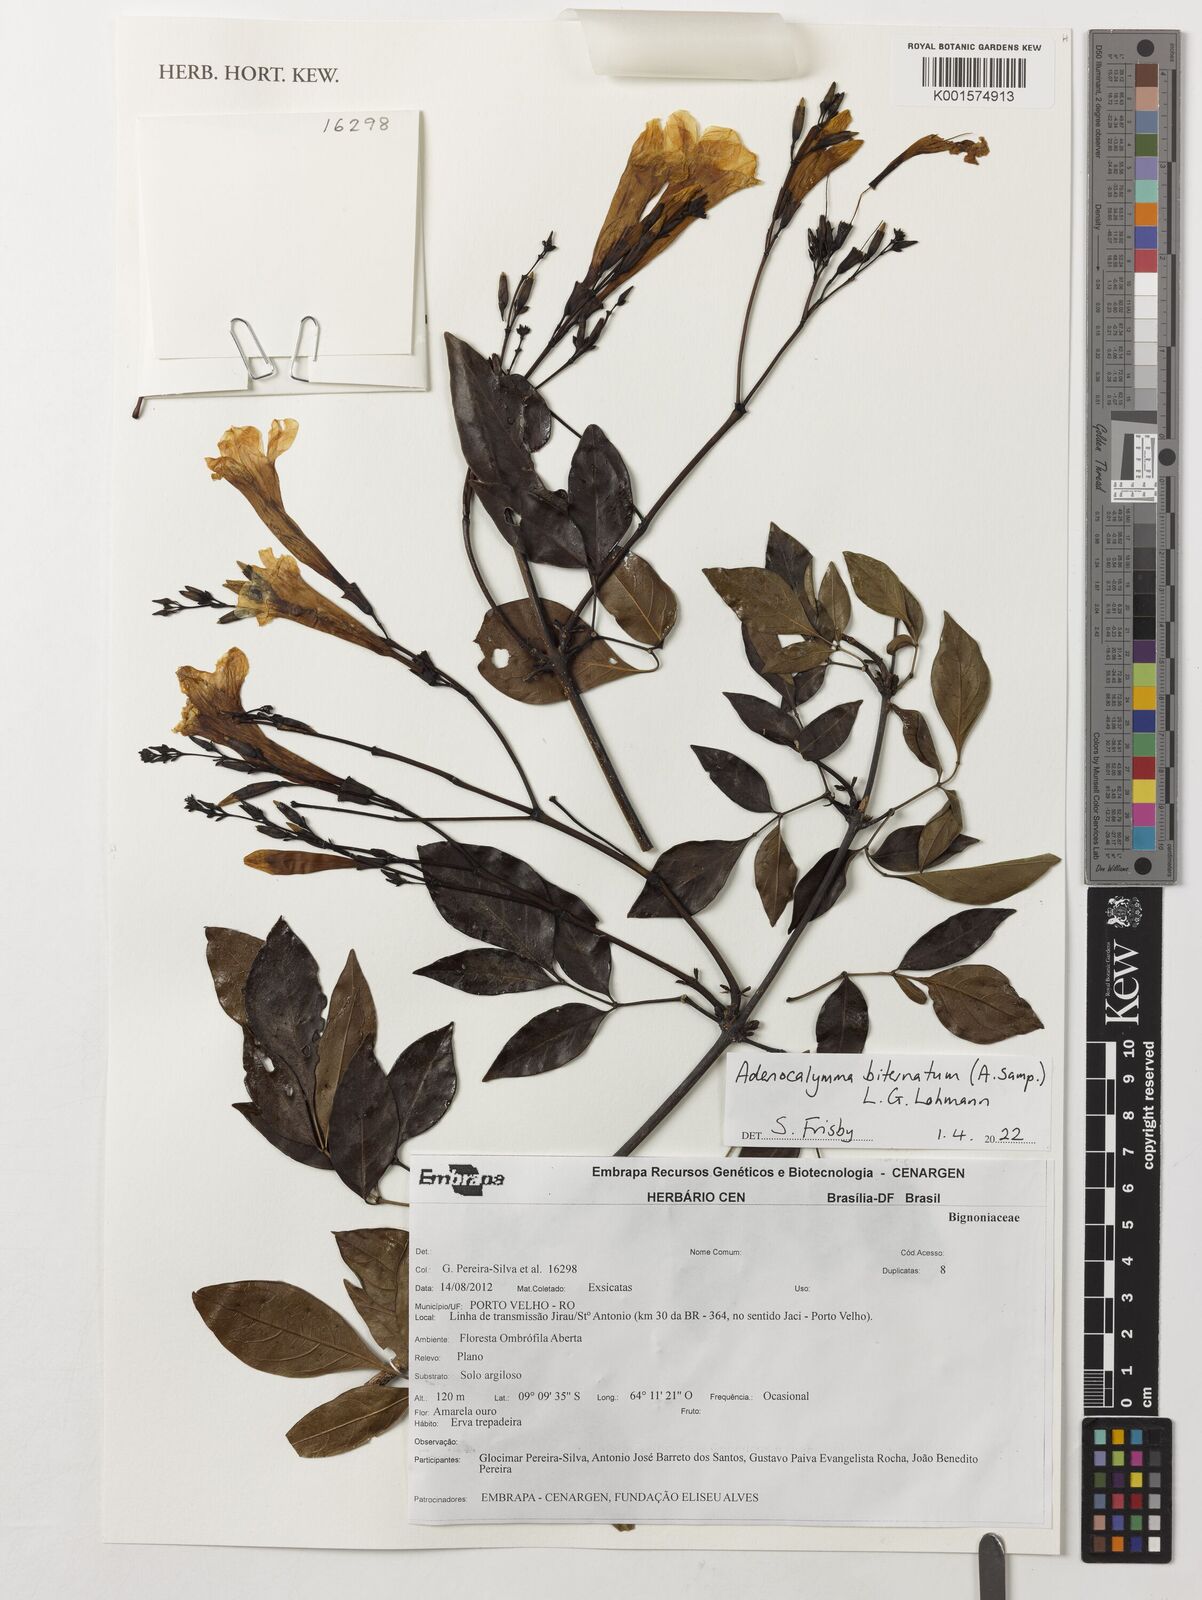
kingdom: Plantae
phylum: Tracheophyta
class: Magnoliopsida
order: Lamiales
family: Bignoniaceae
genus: Adenocalymma
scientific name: Adenocalymma biternatum
